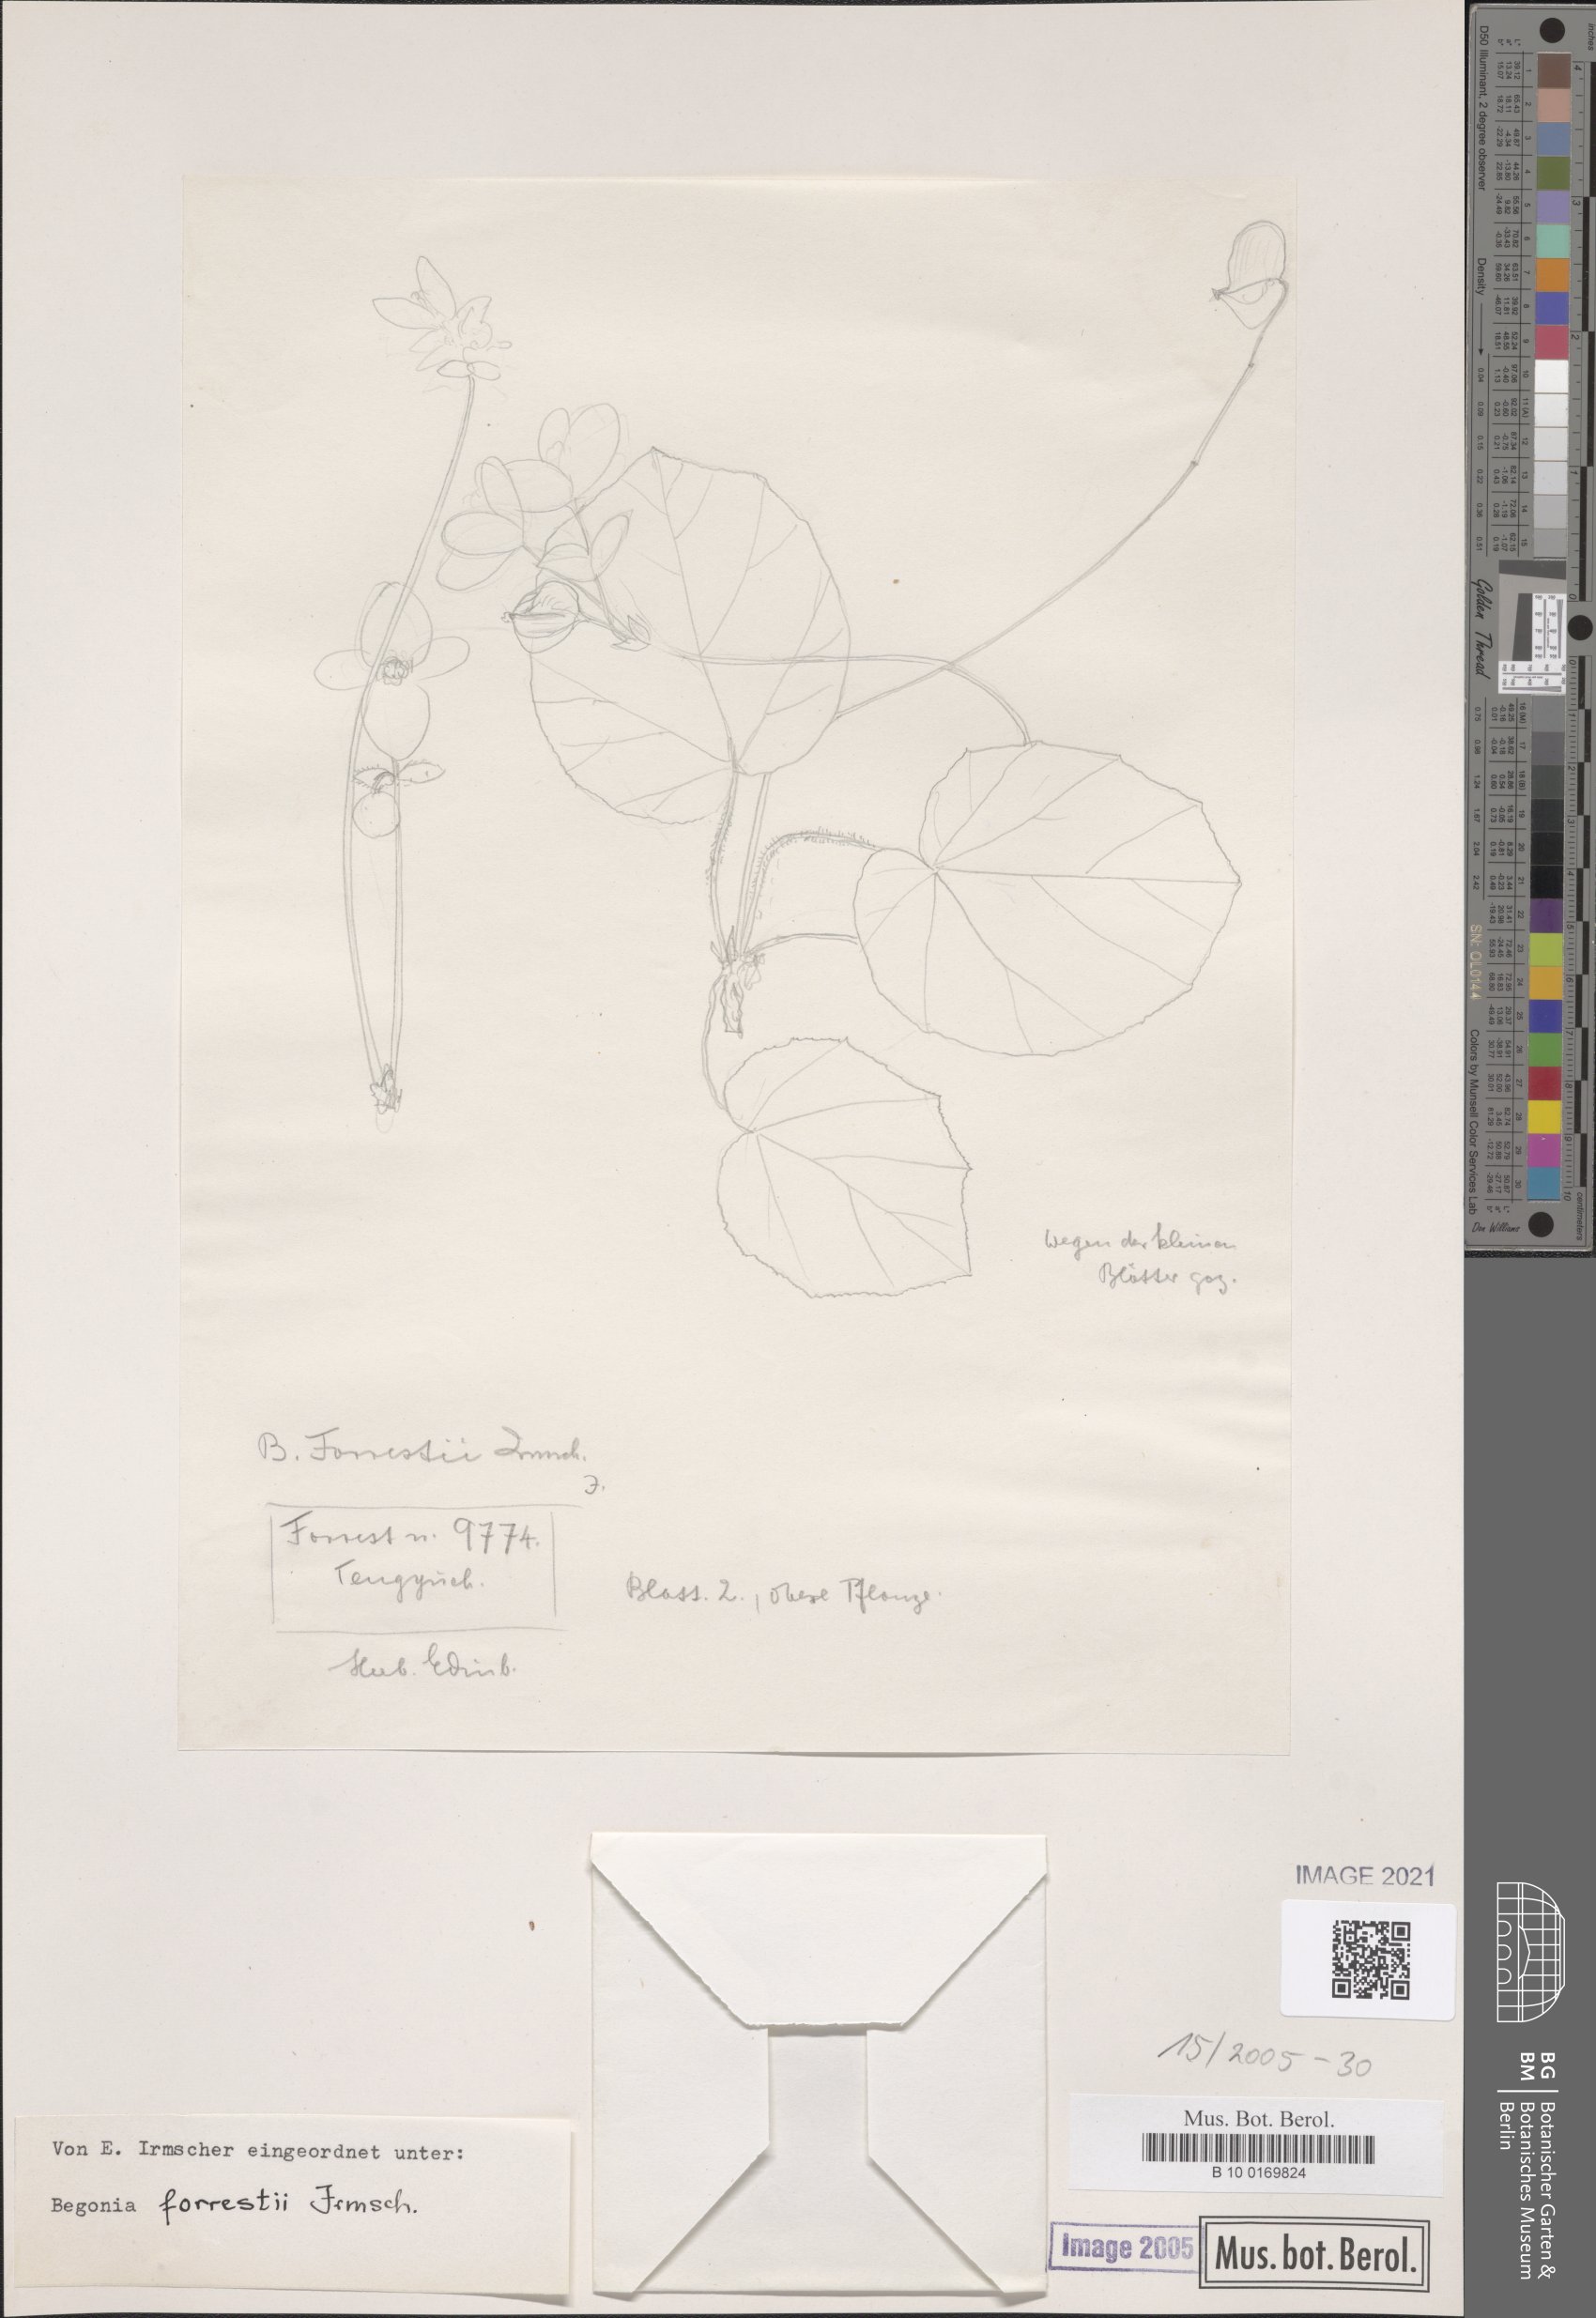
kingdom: Plantae
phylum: Tracheophyta
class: Magnoliopsida
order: Cucurbitales
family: Begoniaceae
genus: Begonia
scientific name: Begonia forrestii
